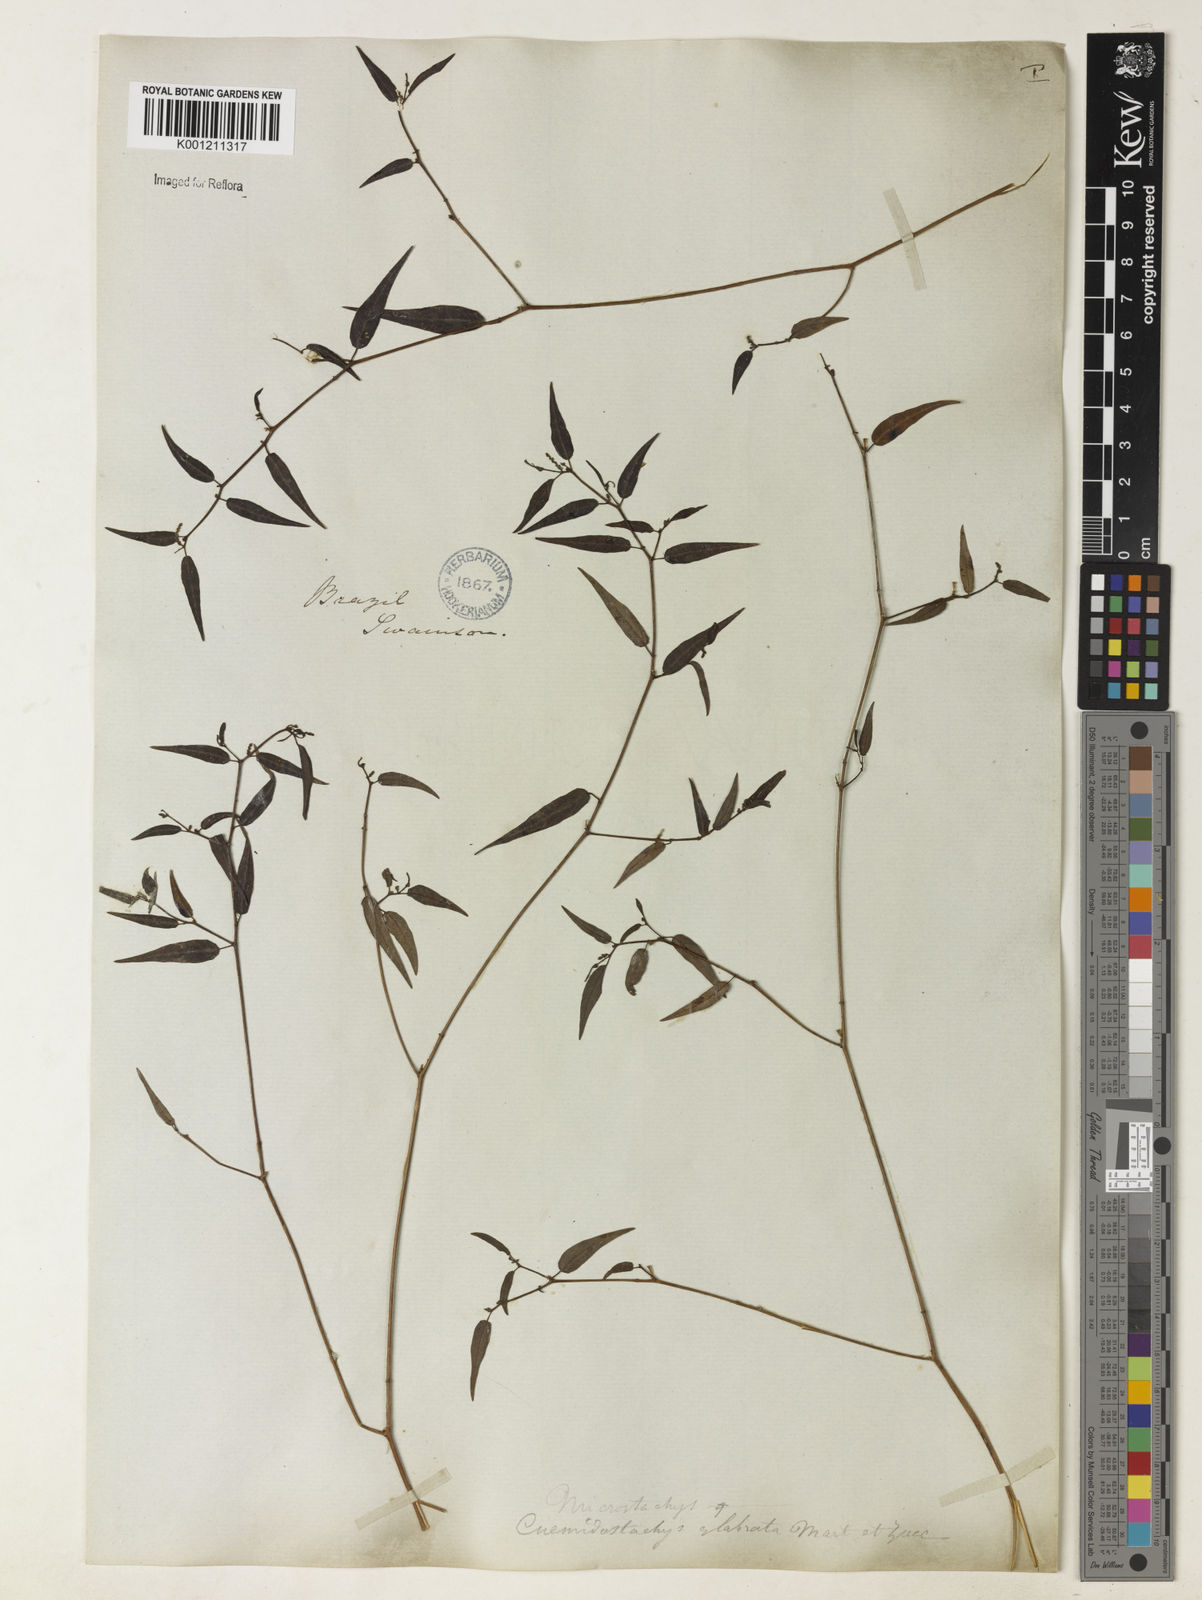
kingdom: Plantae
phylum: Tracheophyta
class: Magnoliopsida
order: Malpighiales
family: Euphorbiaceae
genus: Microstachys
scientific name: Microstachys corniculata
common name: Hato tejas
